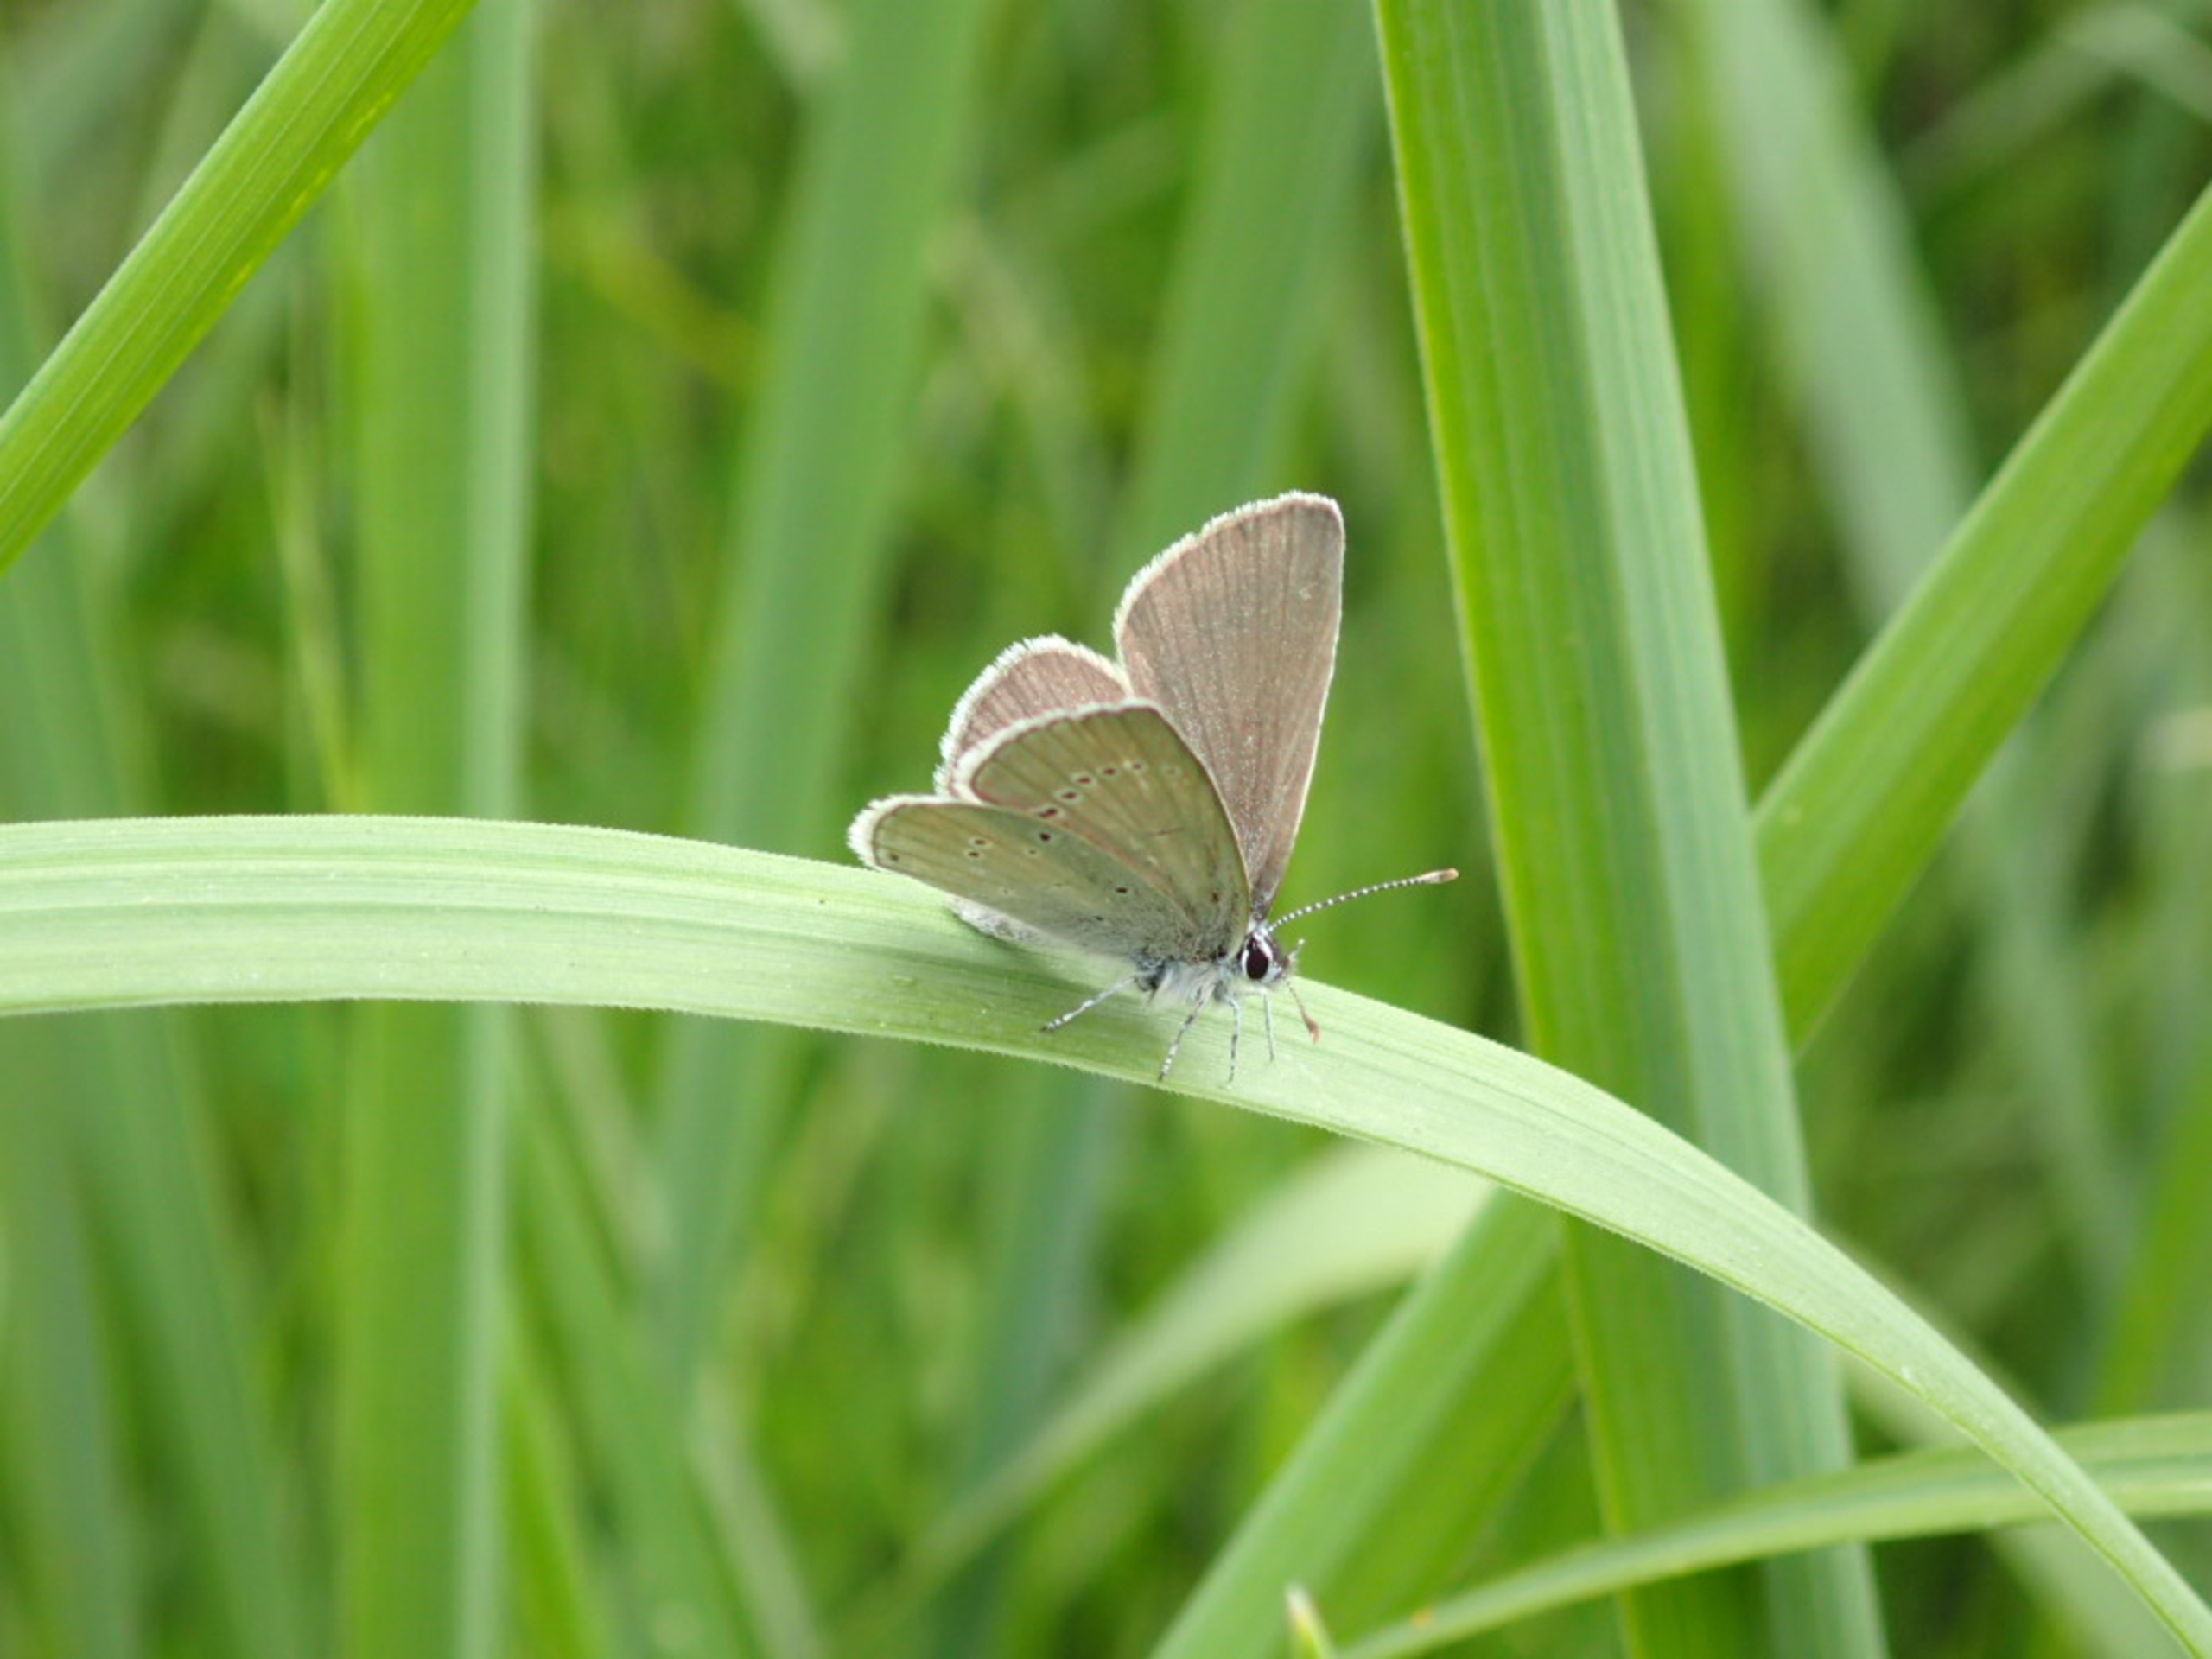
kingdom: Animalia
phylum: Arthropoda
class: Insecta
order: Lepidoptera
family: Lycaenidae
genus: Cupido
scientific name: Cupido minimus
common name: Dværgblåfugl
